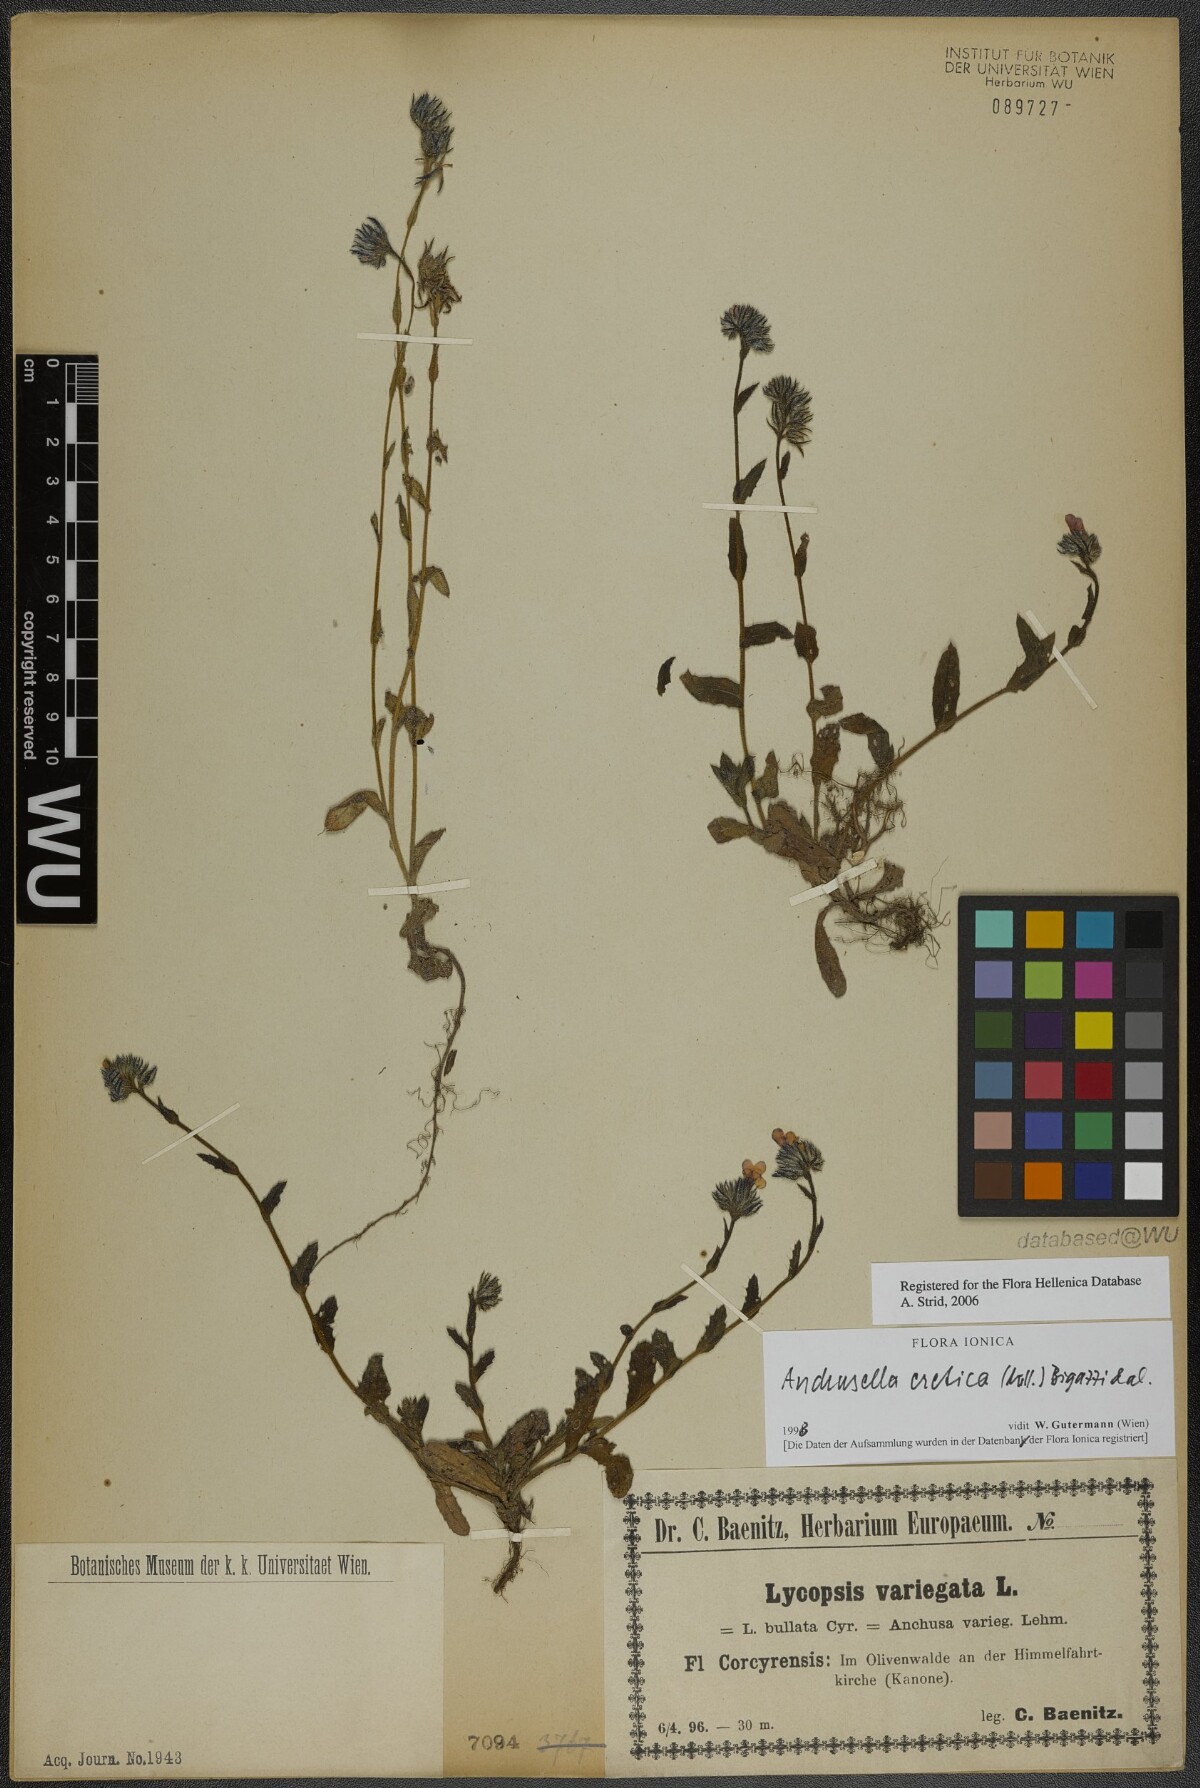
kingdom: Plantae
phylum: Tracheophyta
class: Magnoliopsida
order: Boraginales
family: Boraginaceae
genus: Anchusella
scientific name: Anchusella cretica
